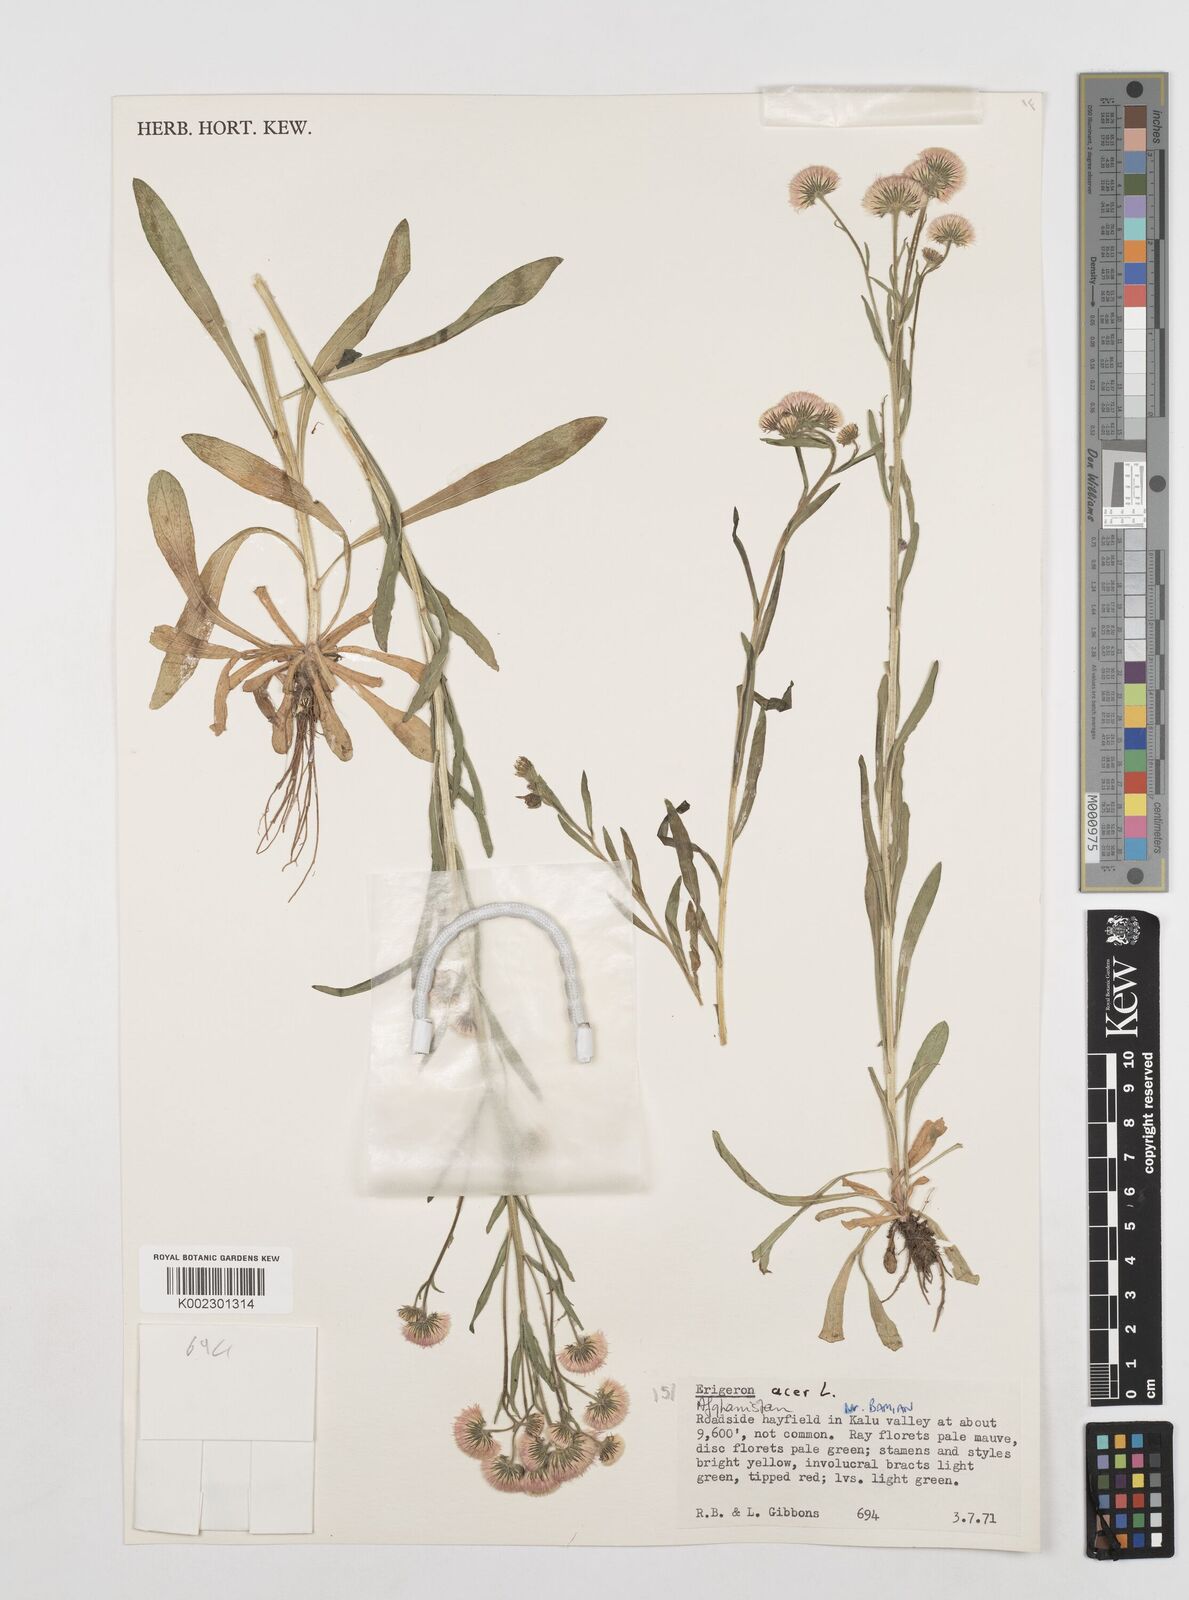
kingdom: Plantae
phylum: Tracheophyta
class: Magnoliopsida
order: Asterales
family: Asteraceae
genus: Erigeron
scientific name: Erigeron acris
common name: Blue fleabane
